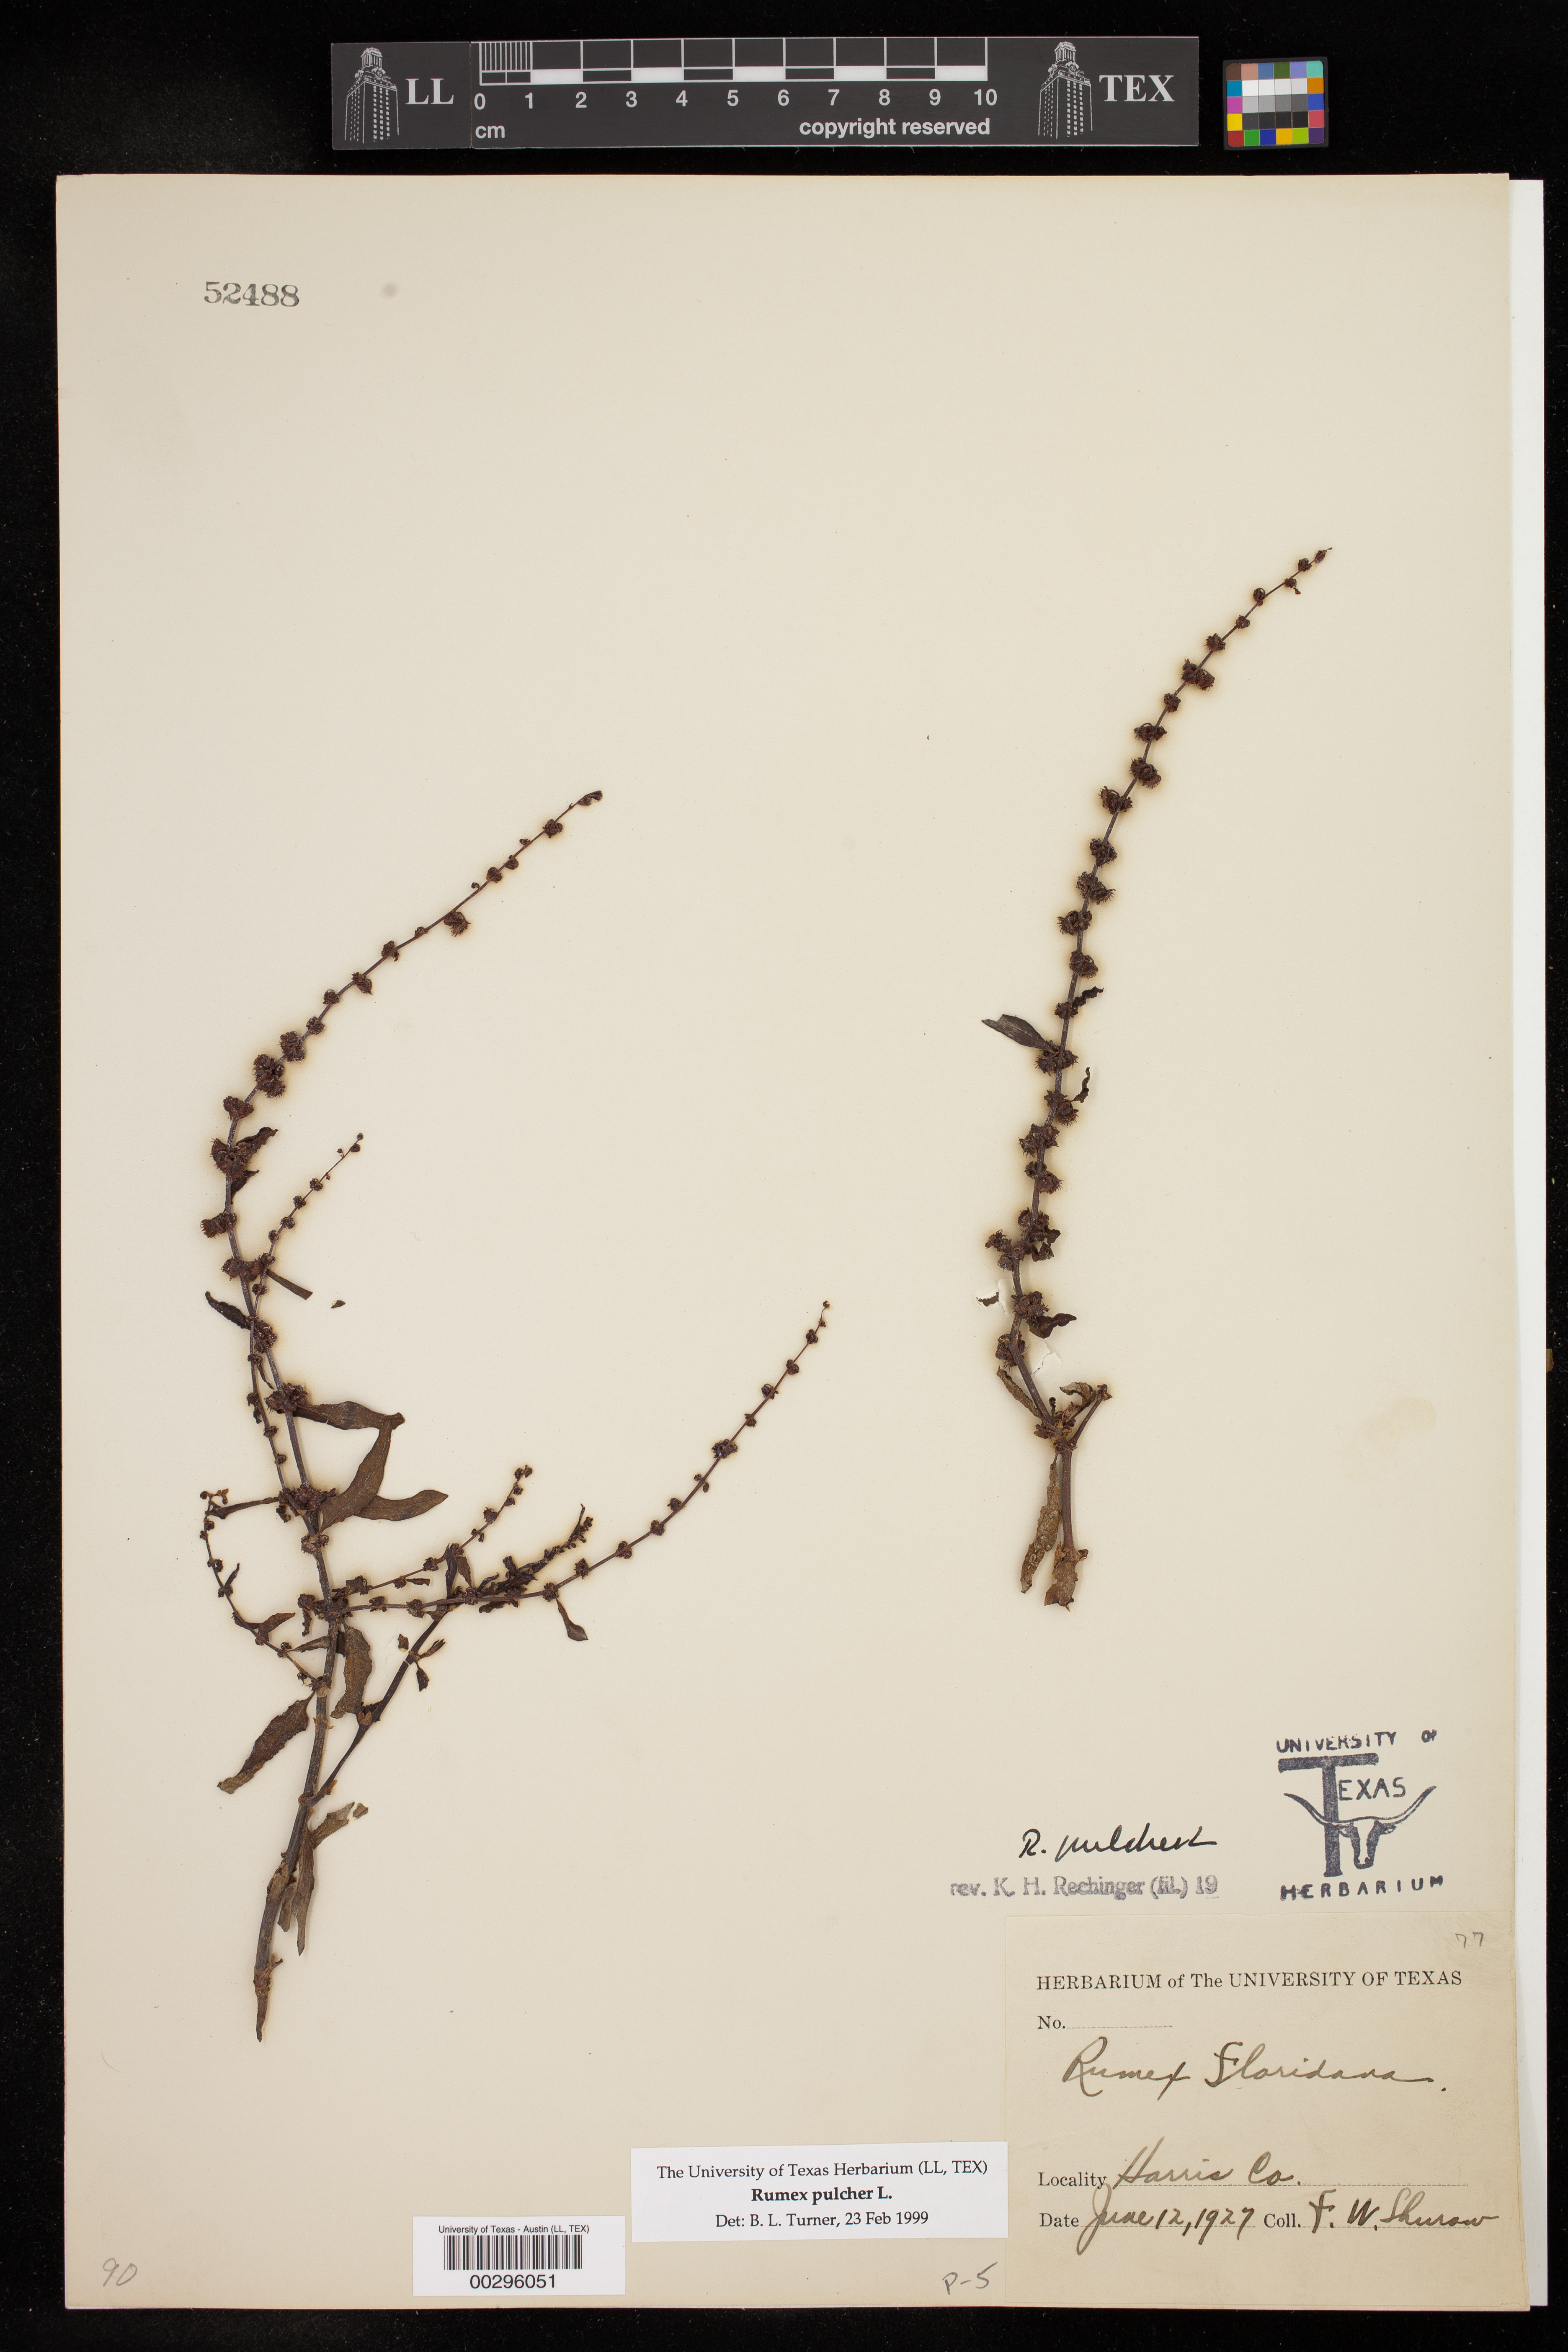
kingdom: Plantae
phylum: Tracheophyta
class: Magnoliopsida
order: Caryophyllales
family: Polygonaceae
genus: Rumex
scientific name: Rumex pulcher
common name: Fiddle dock
